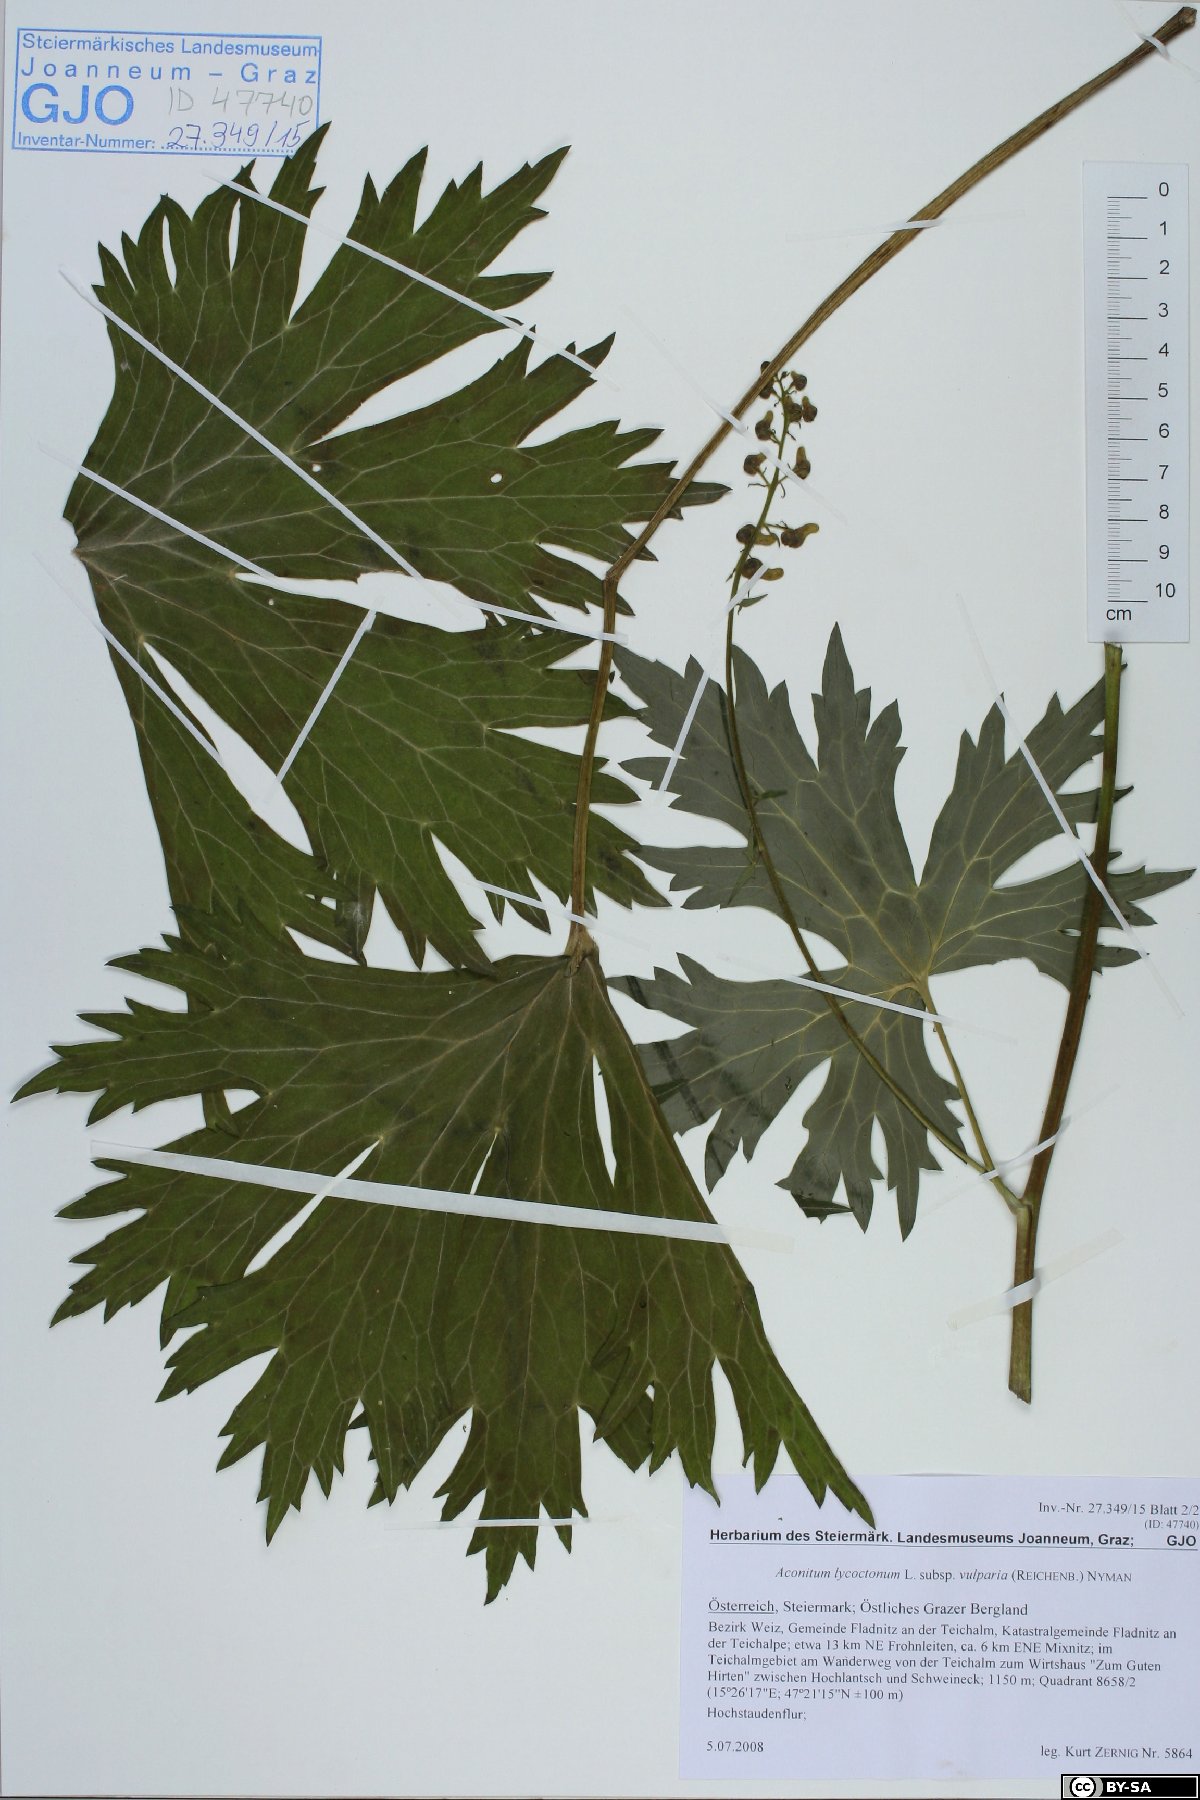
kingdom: Plantae
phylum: Tracheophyta
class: Magnoliopsida
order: Ranunculales
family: Ranunculaceae
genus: Aconitum
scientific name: Aconitum lycoctonum
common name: Wolf's-bane
